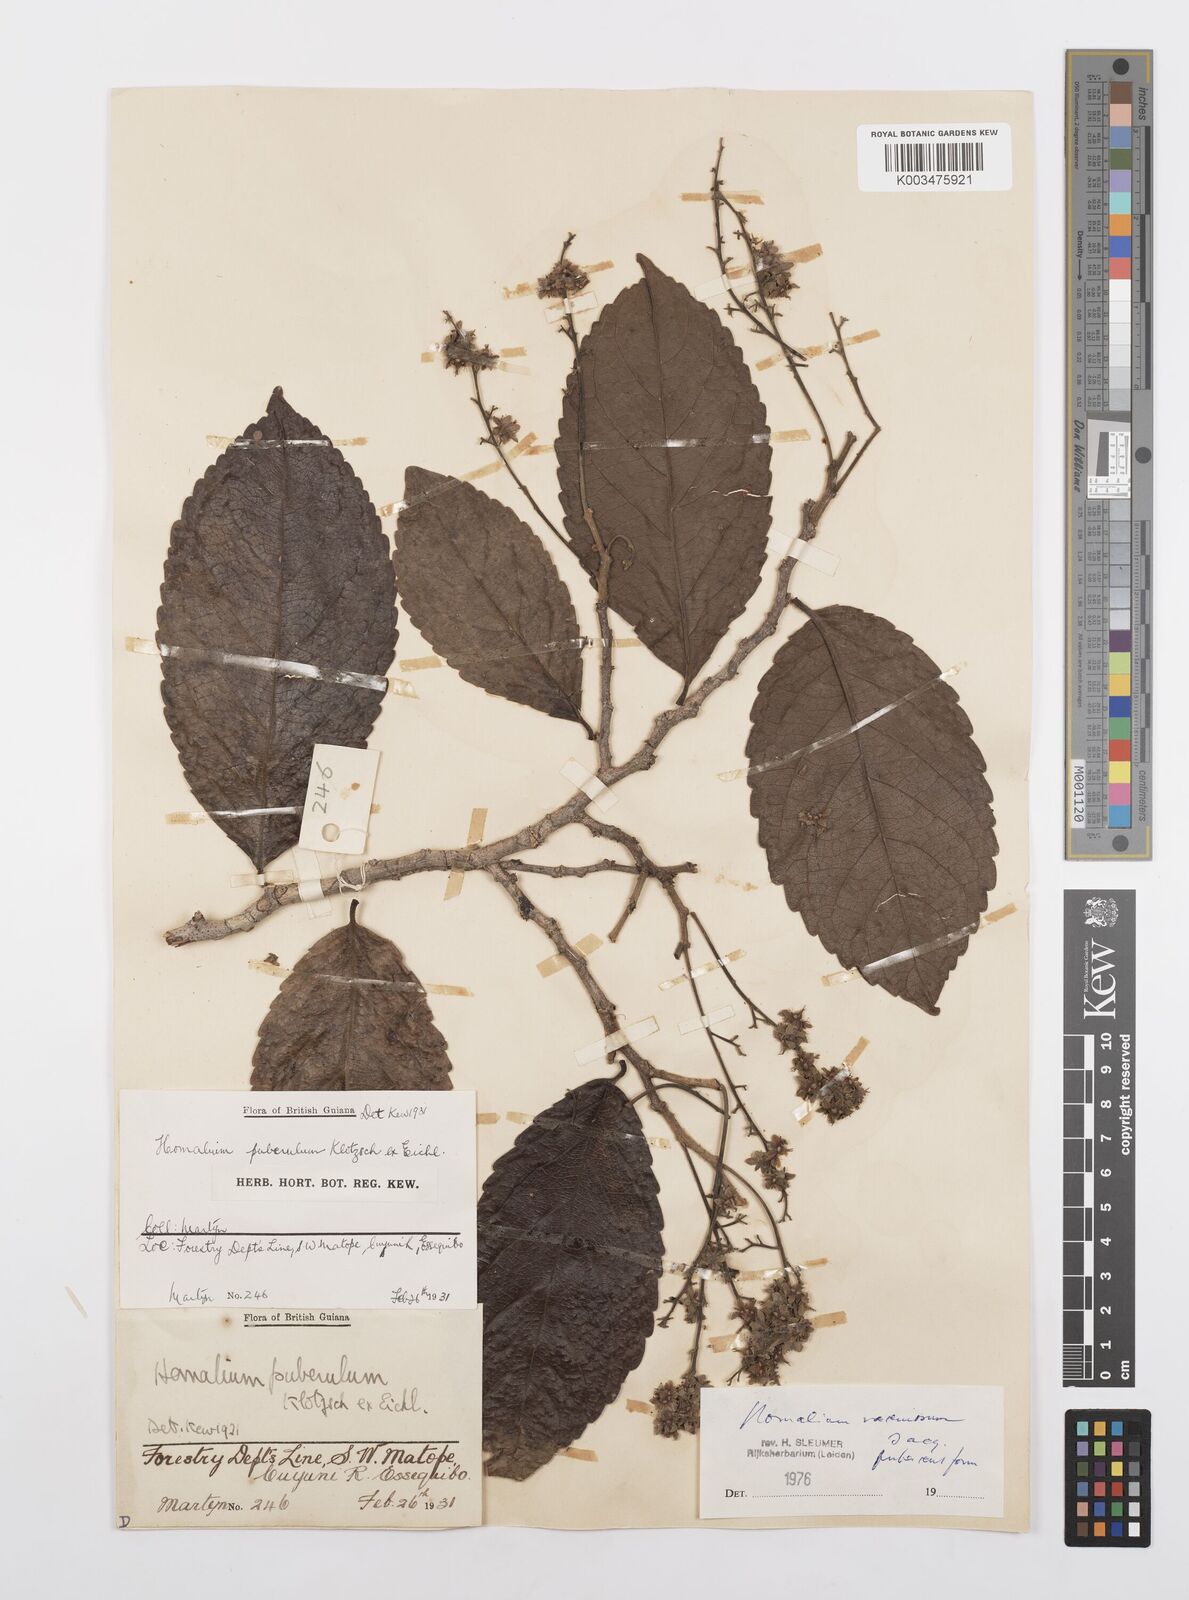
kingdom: Plantae
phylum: Tracheophyta
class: Magnoliopsida
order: Malpighiales
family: Salicaceae
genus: Homalium
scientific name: Homalium racemosum
